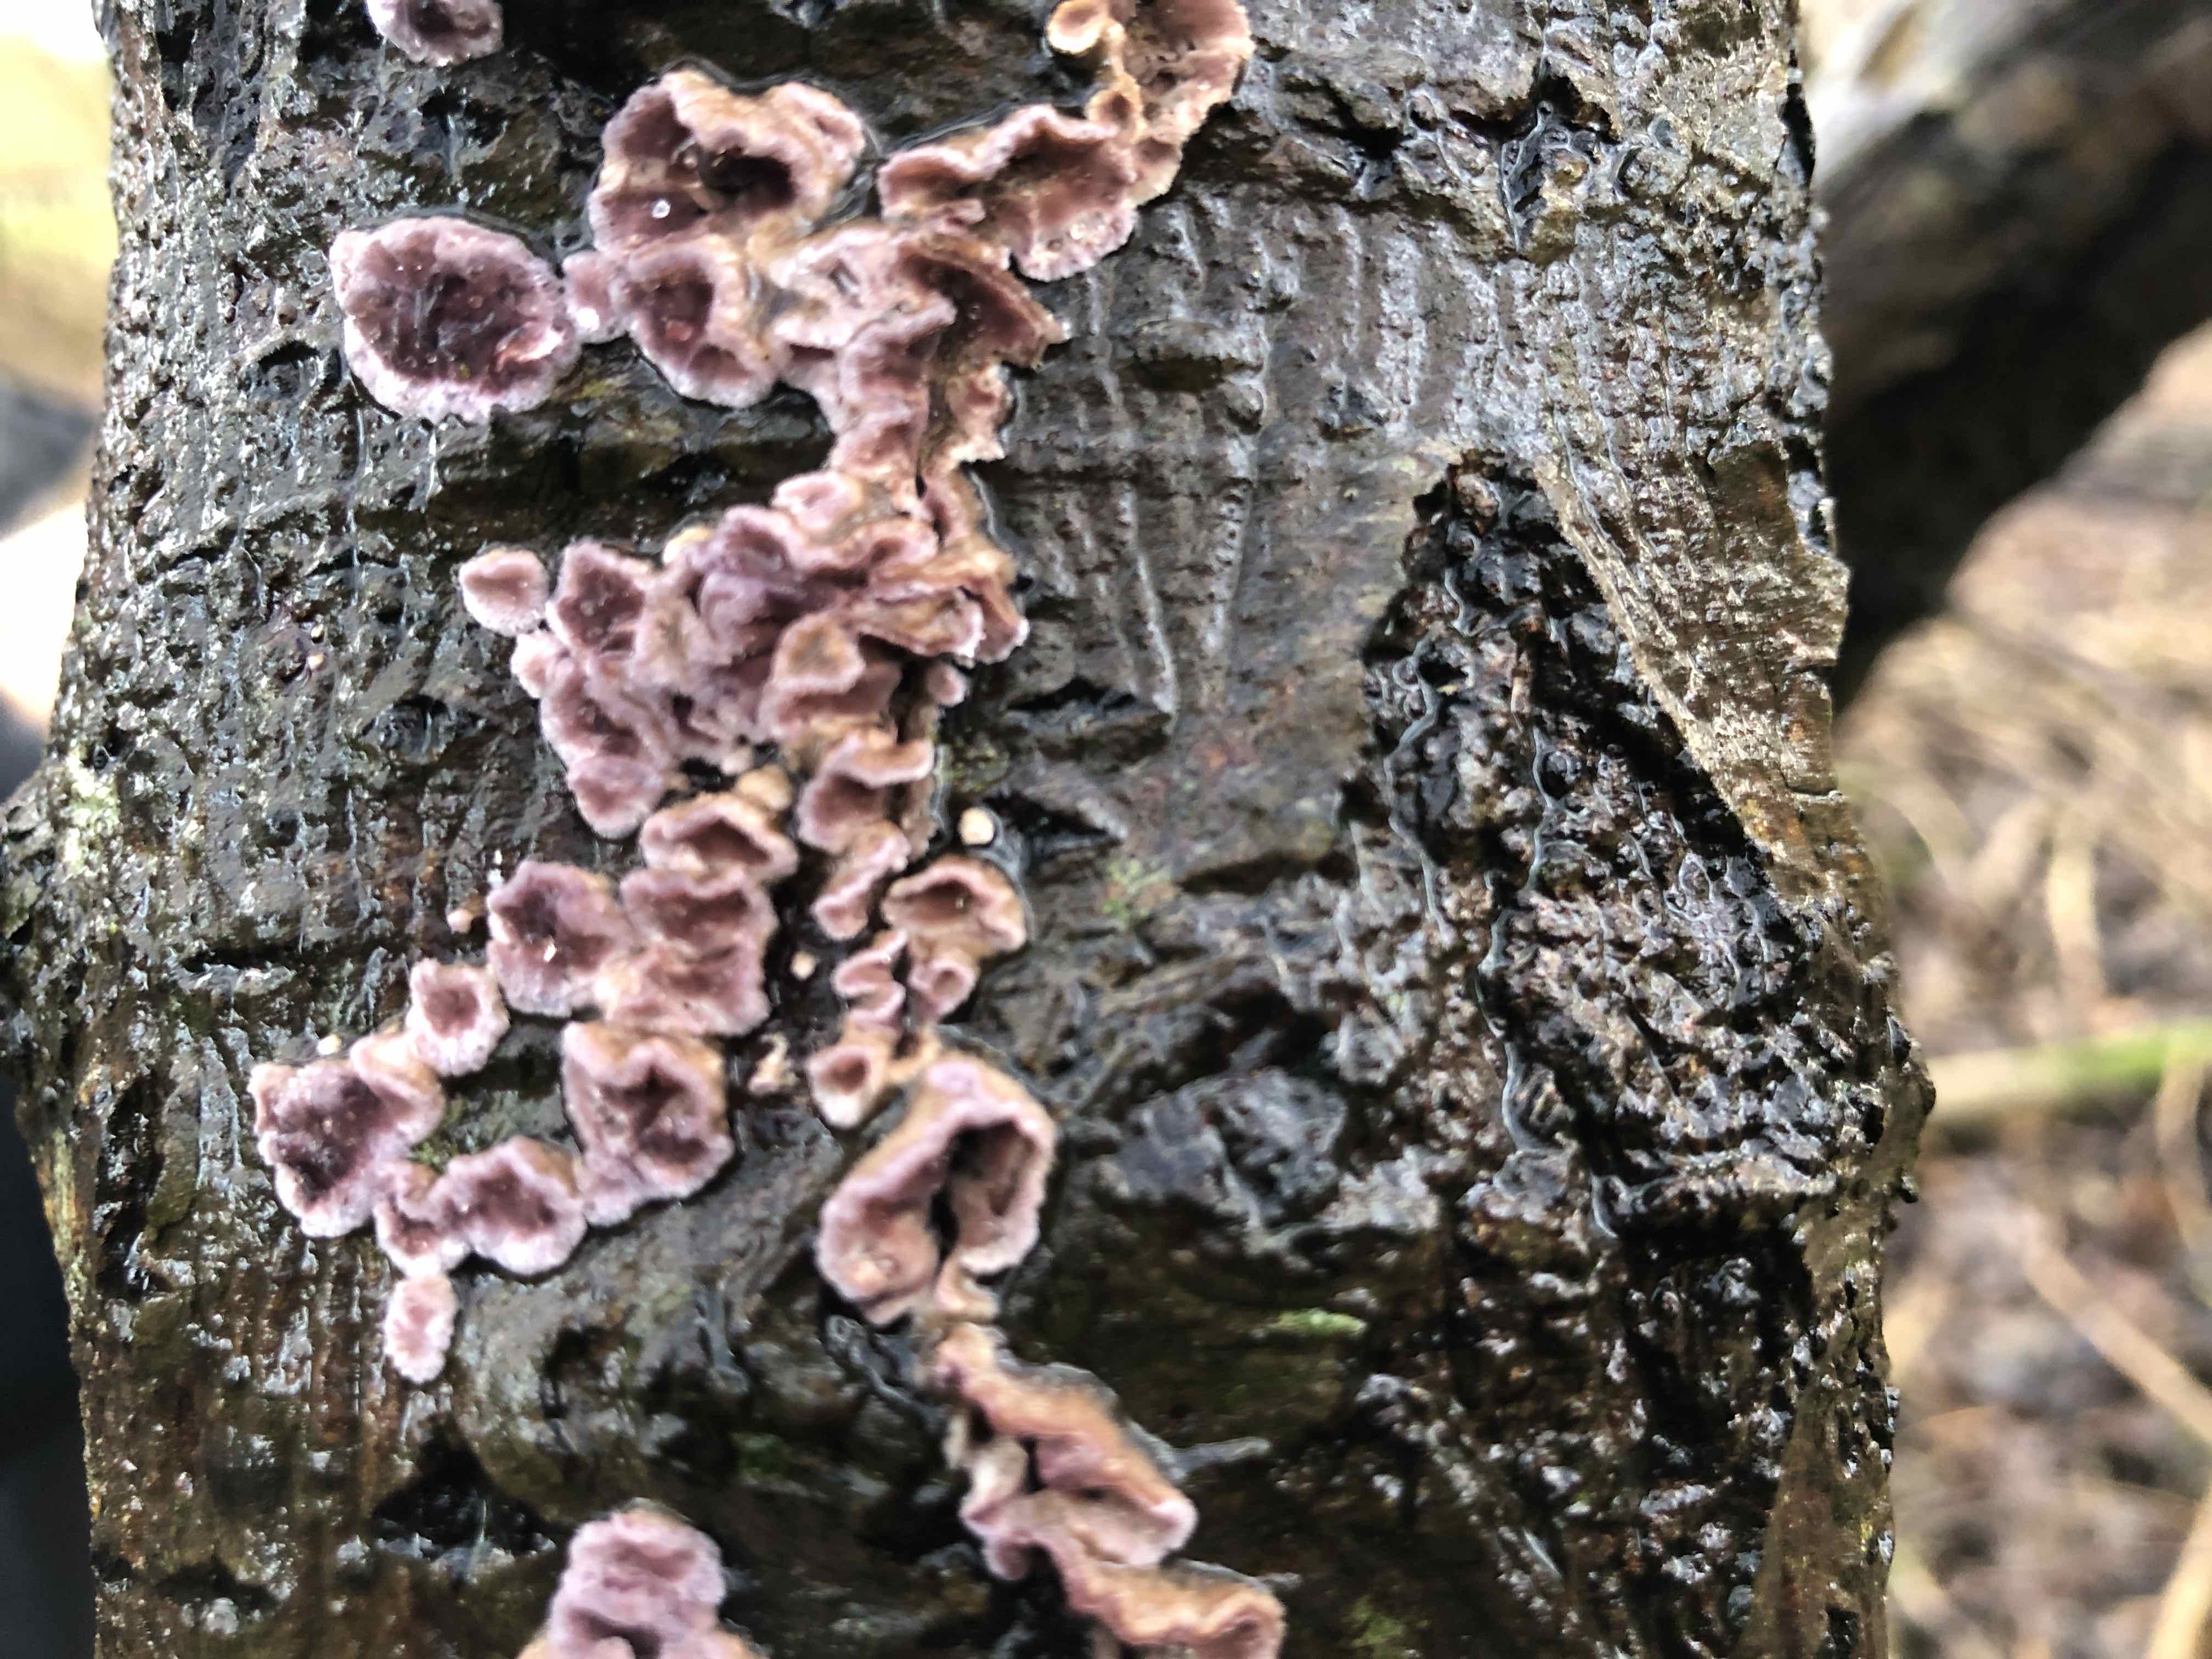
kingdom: Fungi
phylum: Basidiomycota
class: Agaricomycetes
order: Agaricales
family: Cyphellaceae
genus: Chondrostereum
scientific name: Chondrostereum purpureum
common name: purpurlædersvamp
